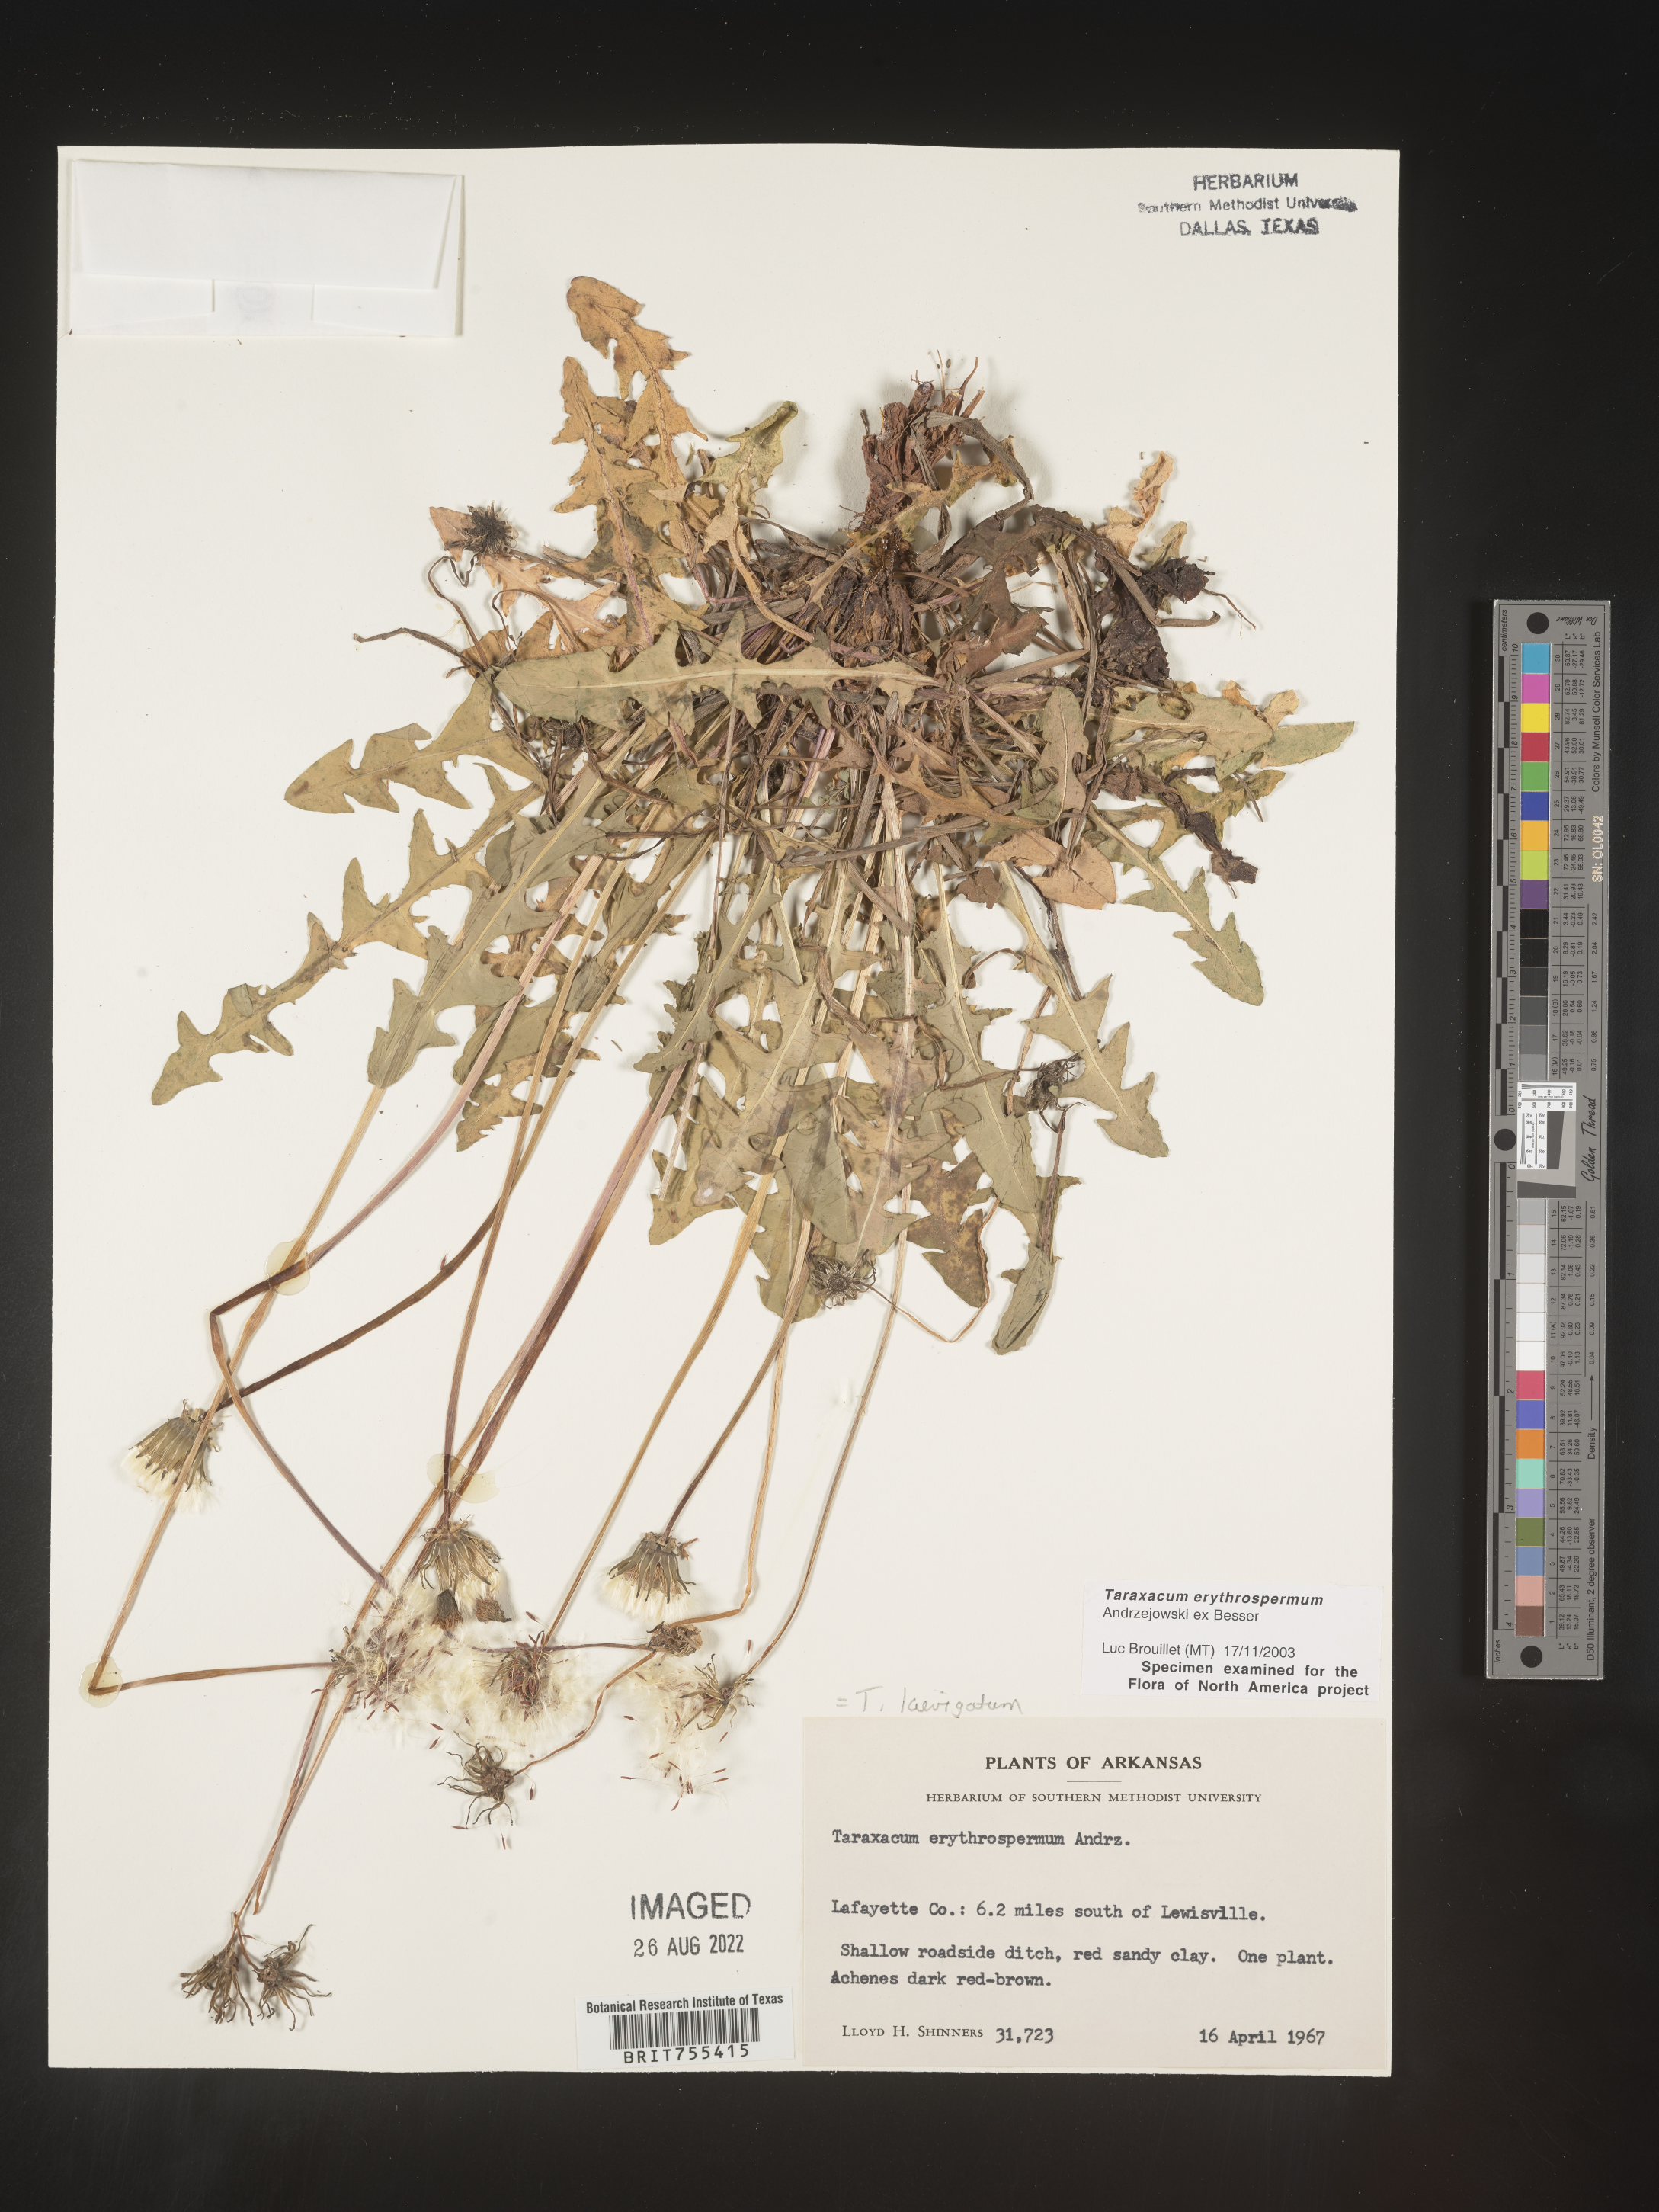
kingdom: Plantae
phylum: Tracheophyta
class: Magnoliopsida
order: Asterales
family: Asteraceae
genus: Taraxacum
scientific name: Taraxacum erythrospermum
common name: Rock dandelion
